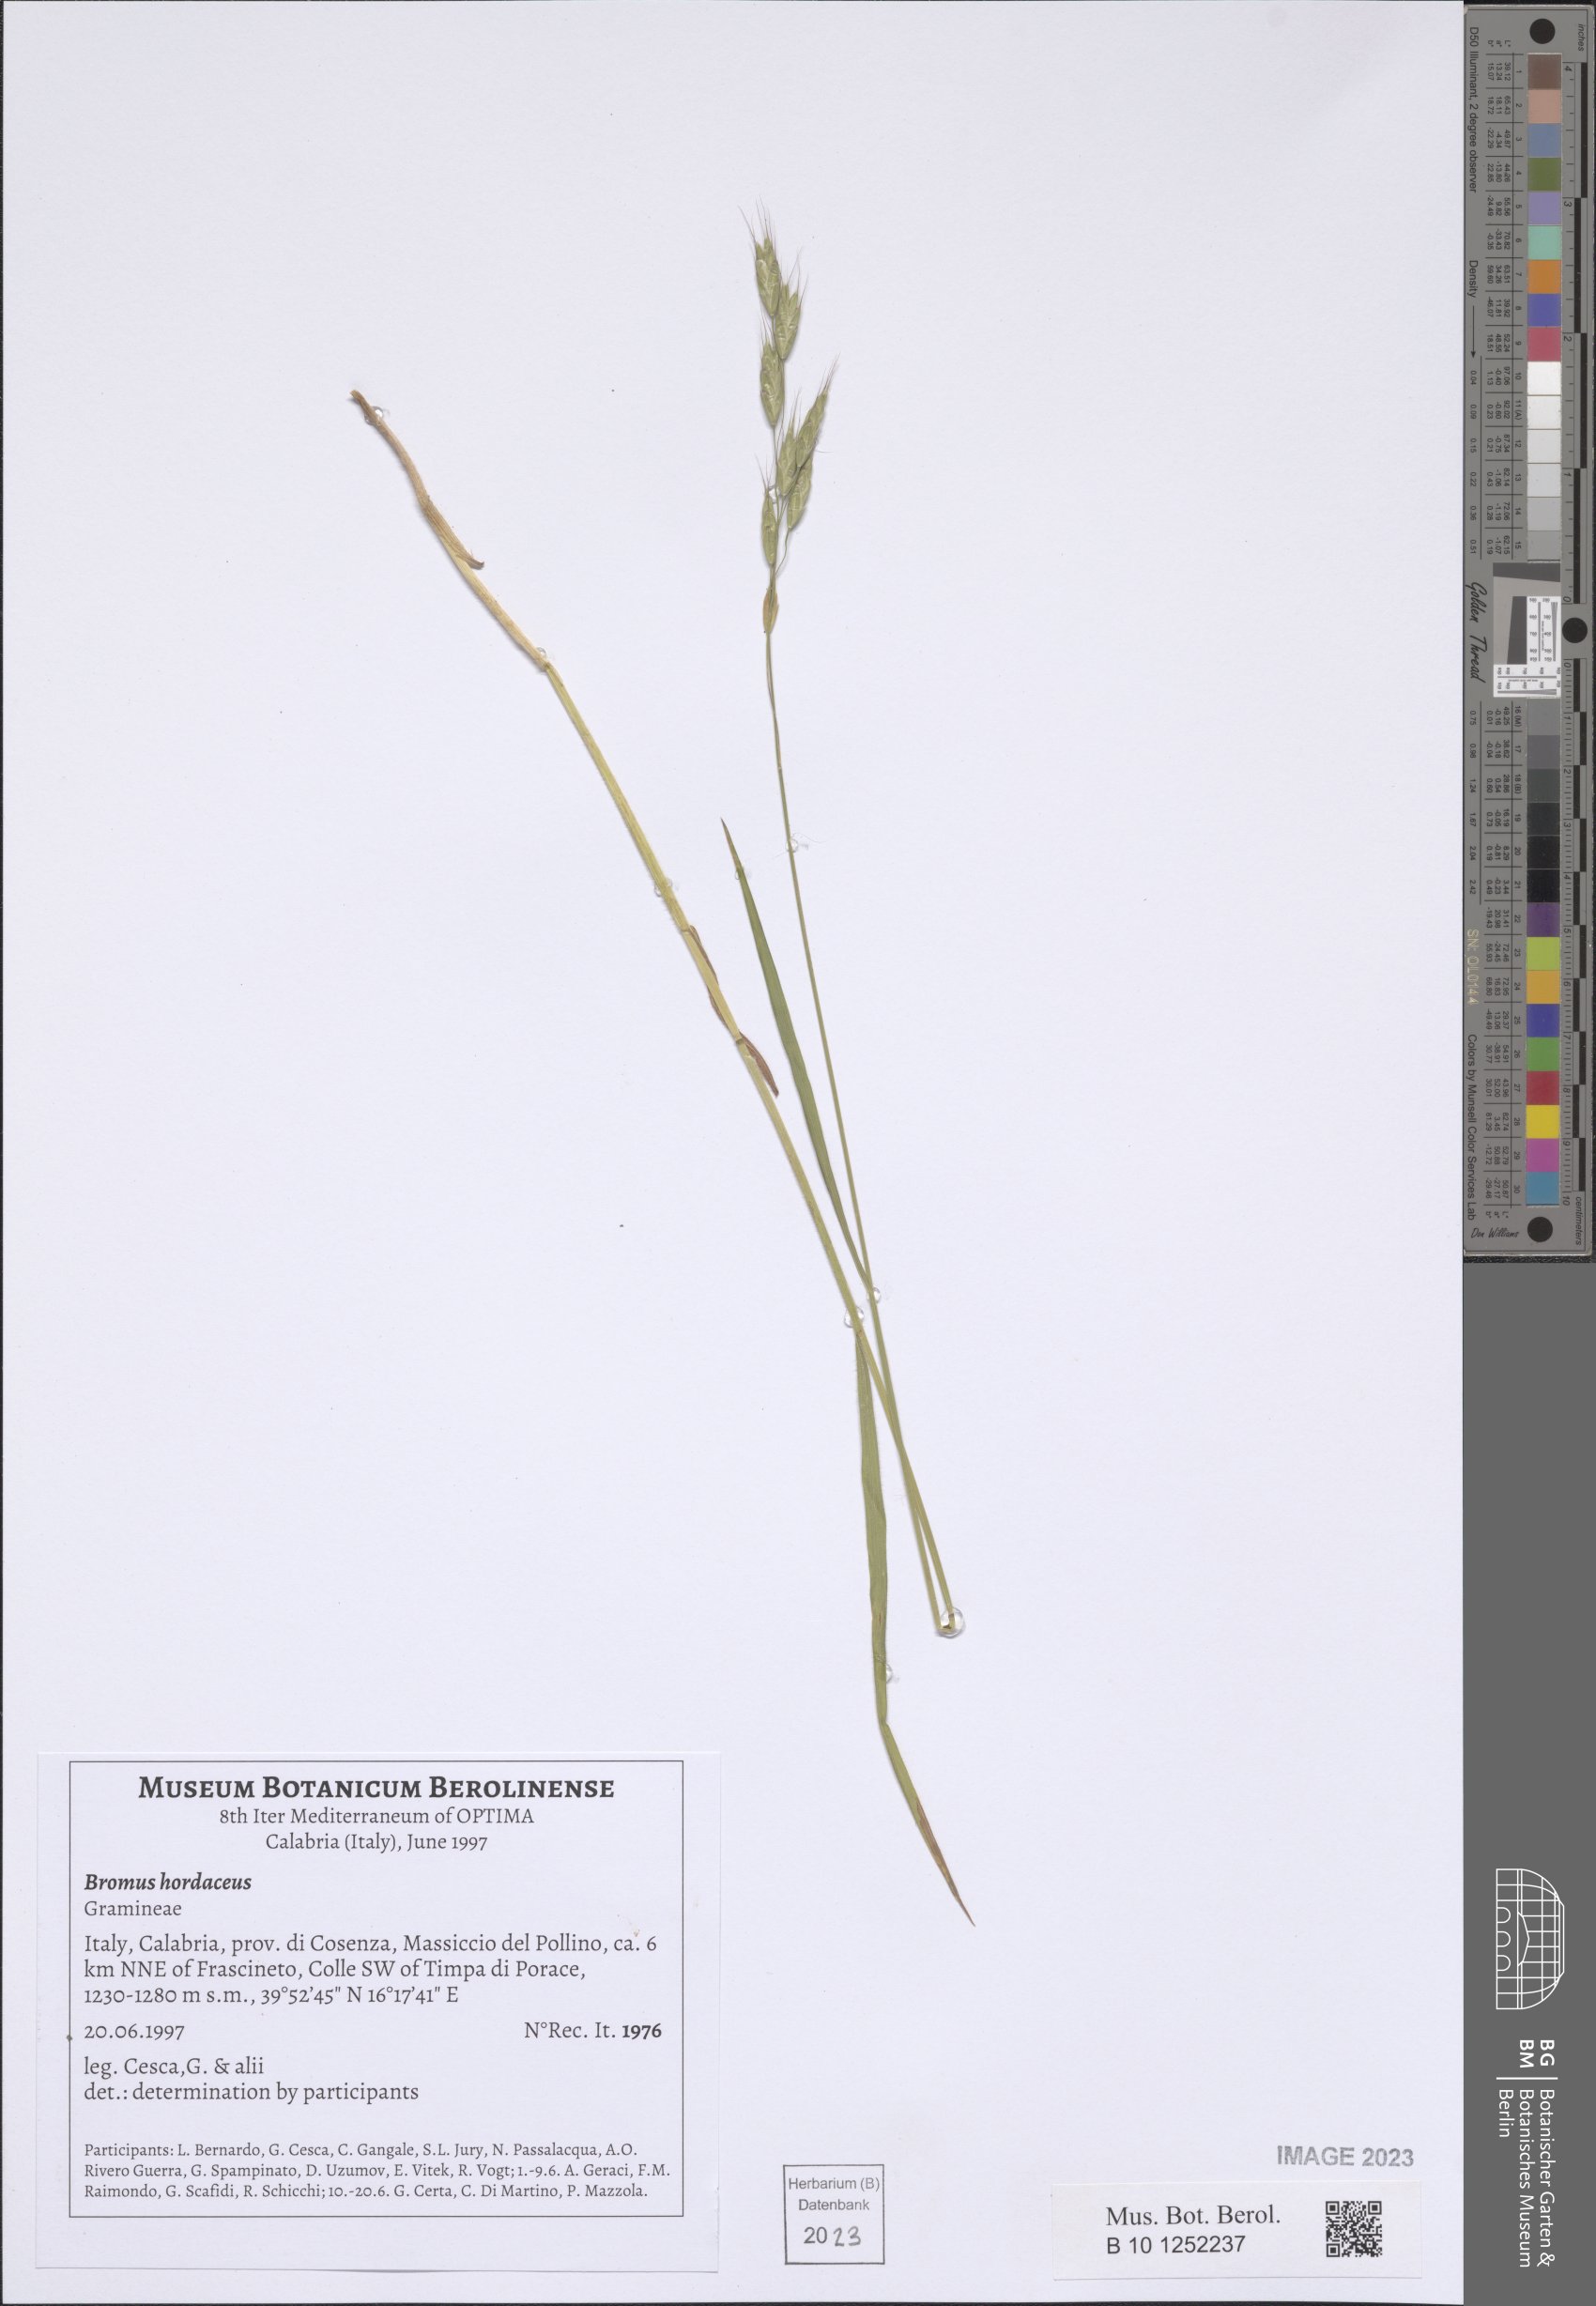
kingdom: Plantae
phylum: Tracheophyta
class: Liliopsida
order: Poales
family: Poaceae
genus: Bromus
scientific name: Bromus hordeaceus
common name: Soft brome
